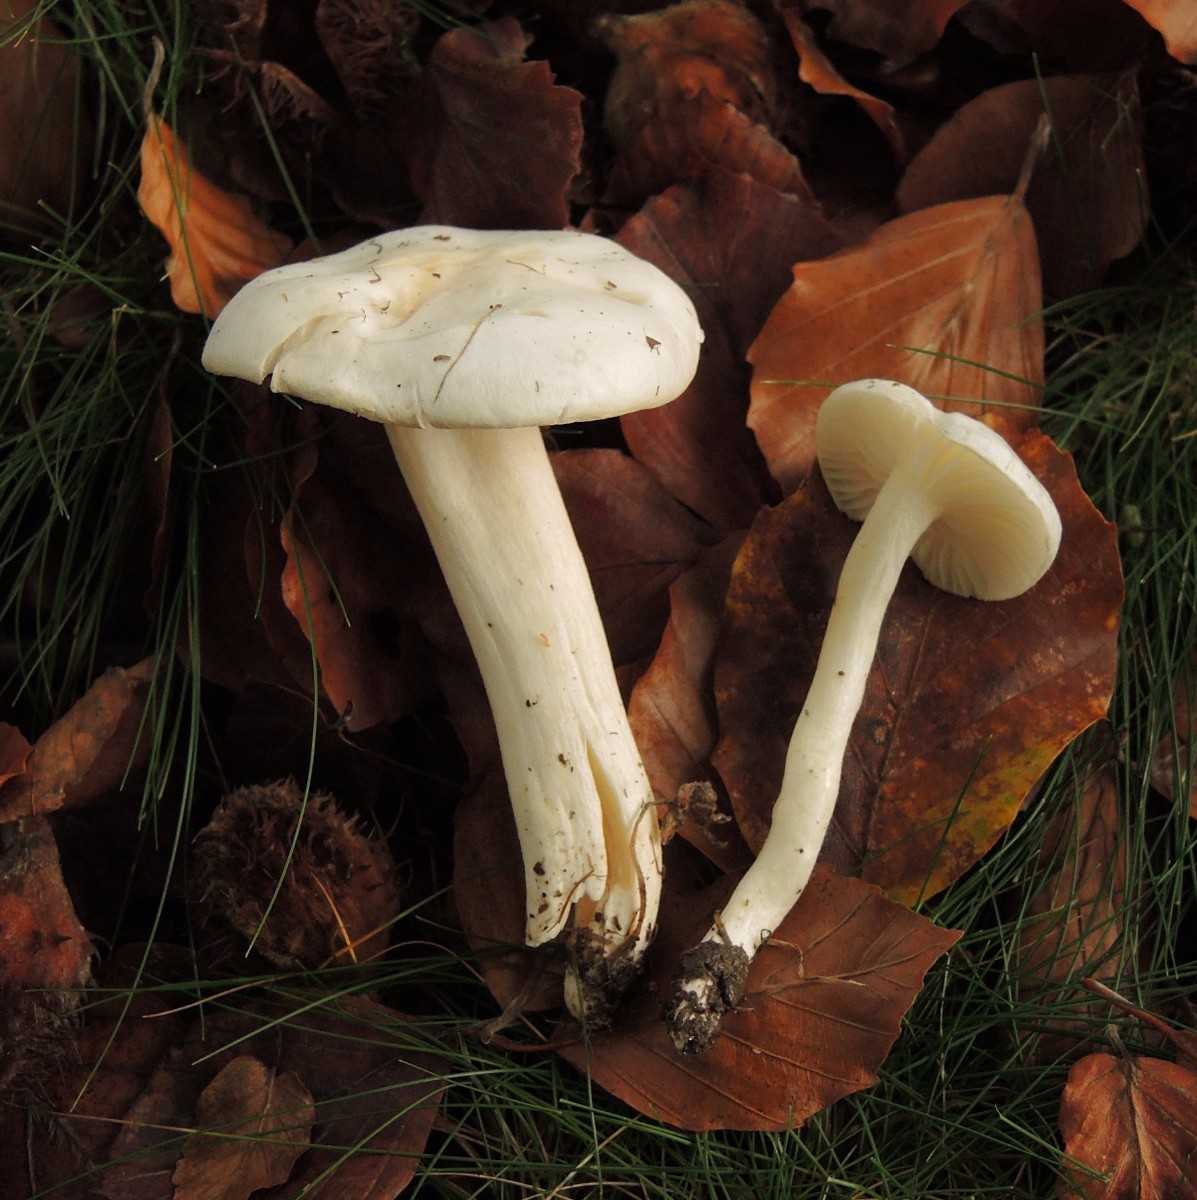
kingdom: Fungi
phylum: Basidiomycota
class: Agaricomycetes
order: Agaricales
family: Hygrophoraceae
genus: Hygrophorus
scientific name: Hygrophorus discoxanthus
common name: ildelugtende sneglehat
